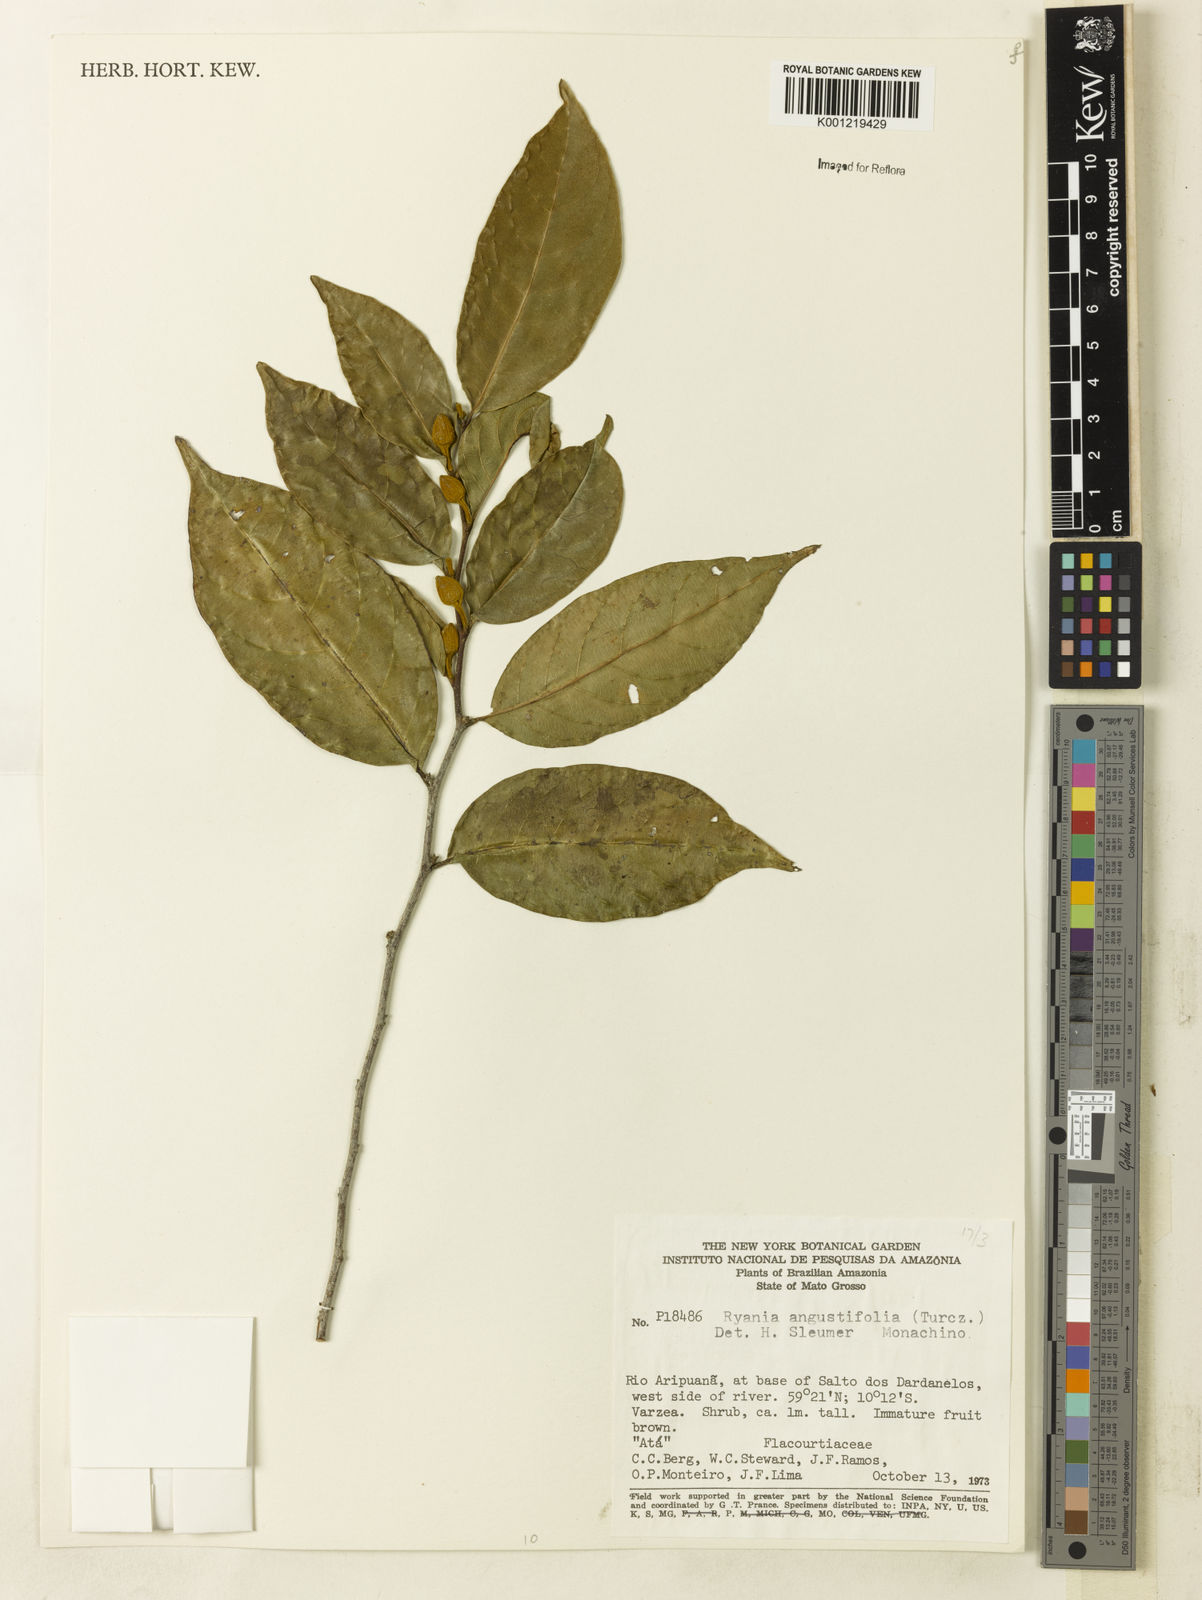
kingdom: Plantae
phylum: Tracheophyta
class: Magnoliopsida
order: Malpighiales
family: Salicaceae
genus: Ryania
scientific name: Ryania angustifolia
